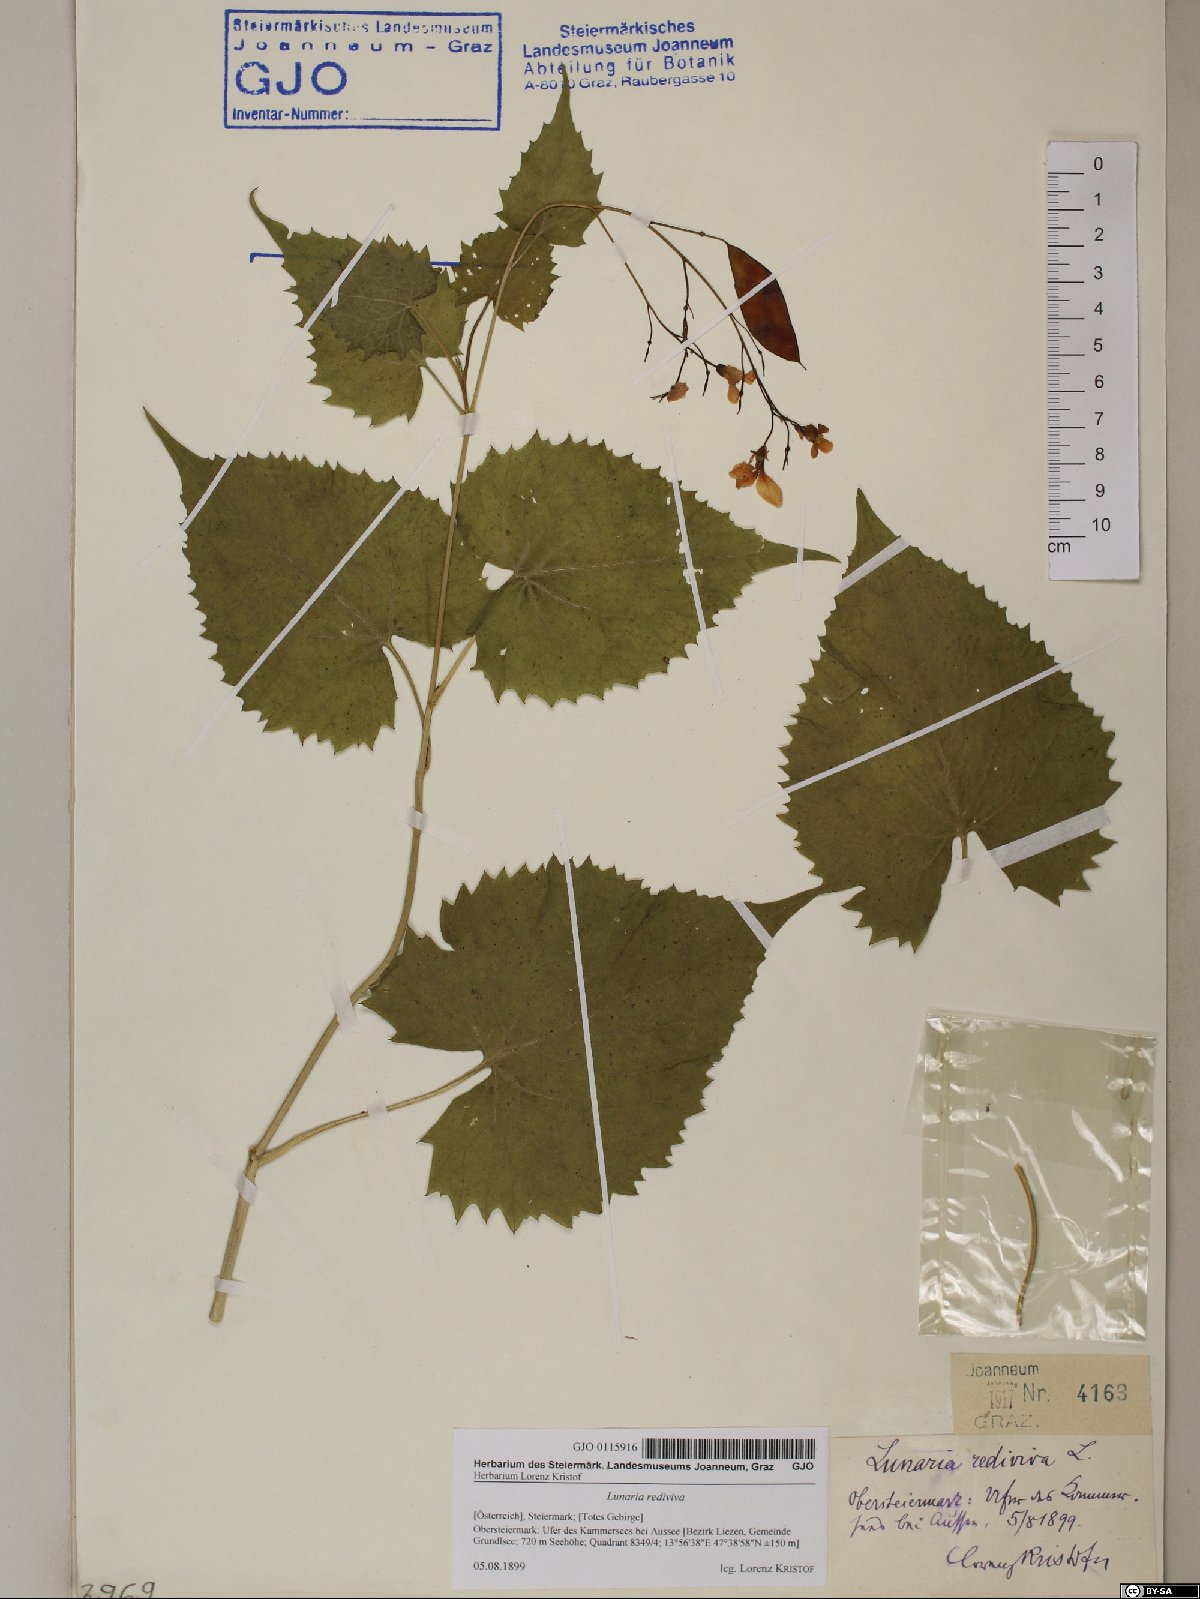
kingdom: Plantae
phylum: Tracheophyta
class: Magnoliopsida
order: Brassicales
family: Brassicaceae
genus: Lunaria
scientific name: Lunaria rediviva
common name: Perennial honesty
